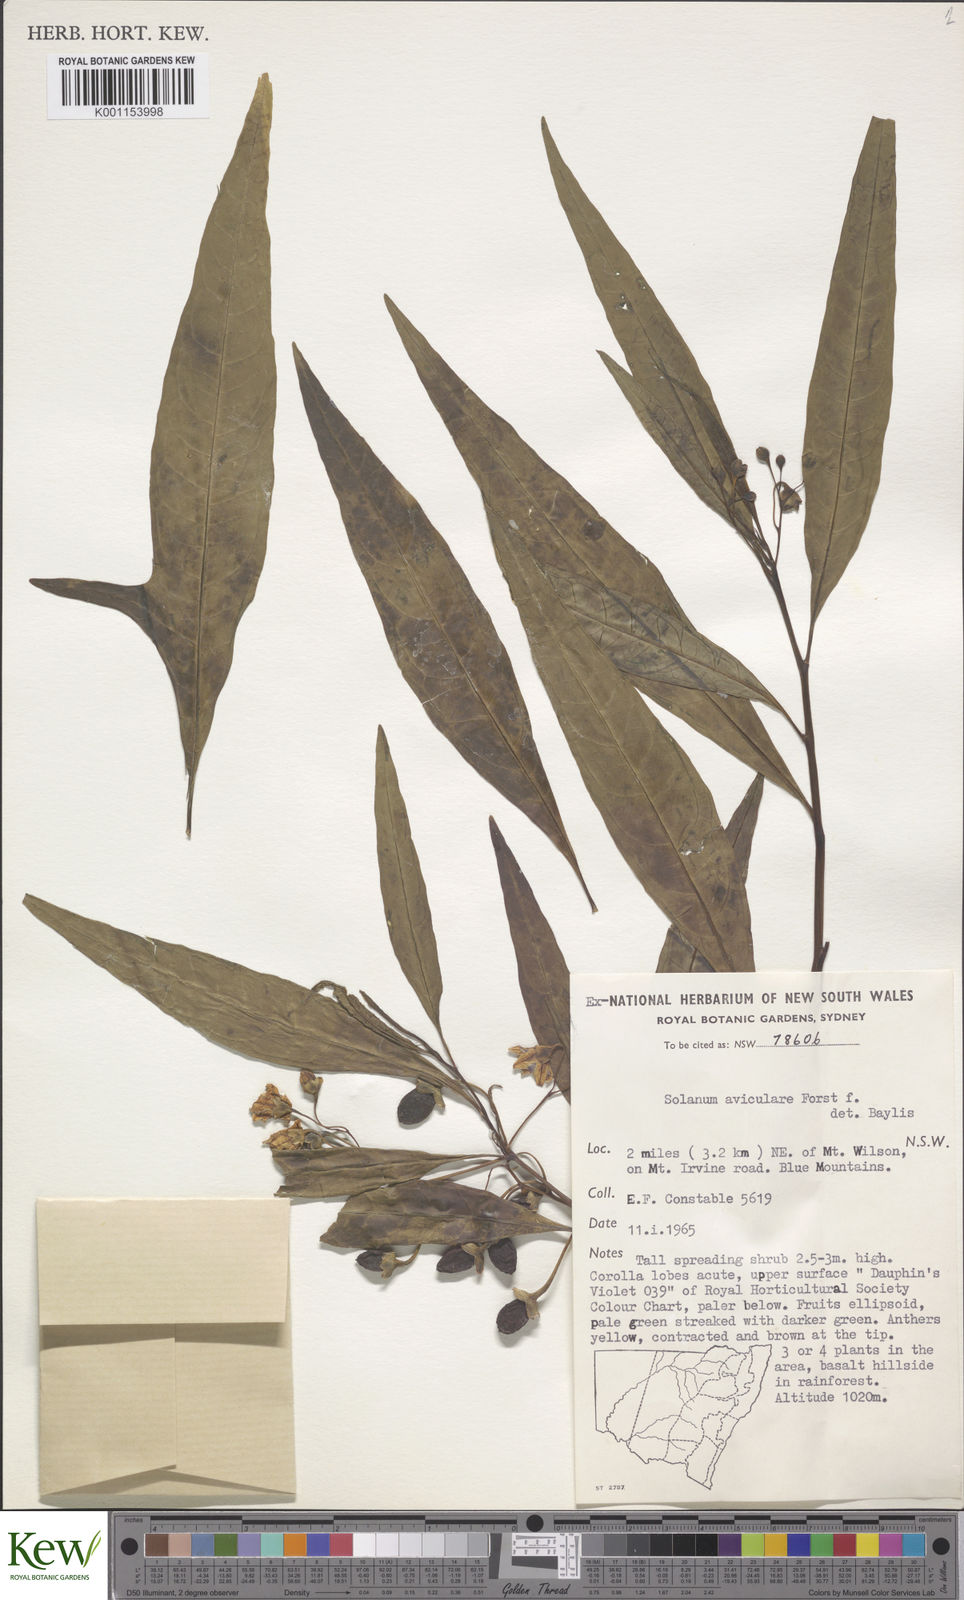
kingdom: Plantae
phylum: Tracheophyta
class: Magnoliopsida
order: Solanales
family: Solanaceae
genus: Solanum
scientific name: Solanum aviculare
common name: New zealand nightshade
